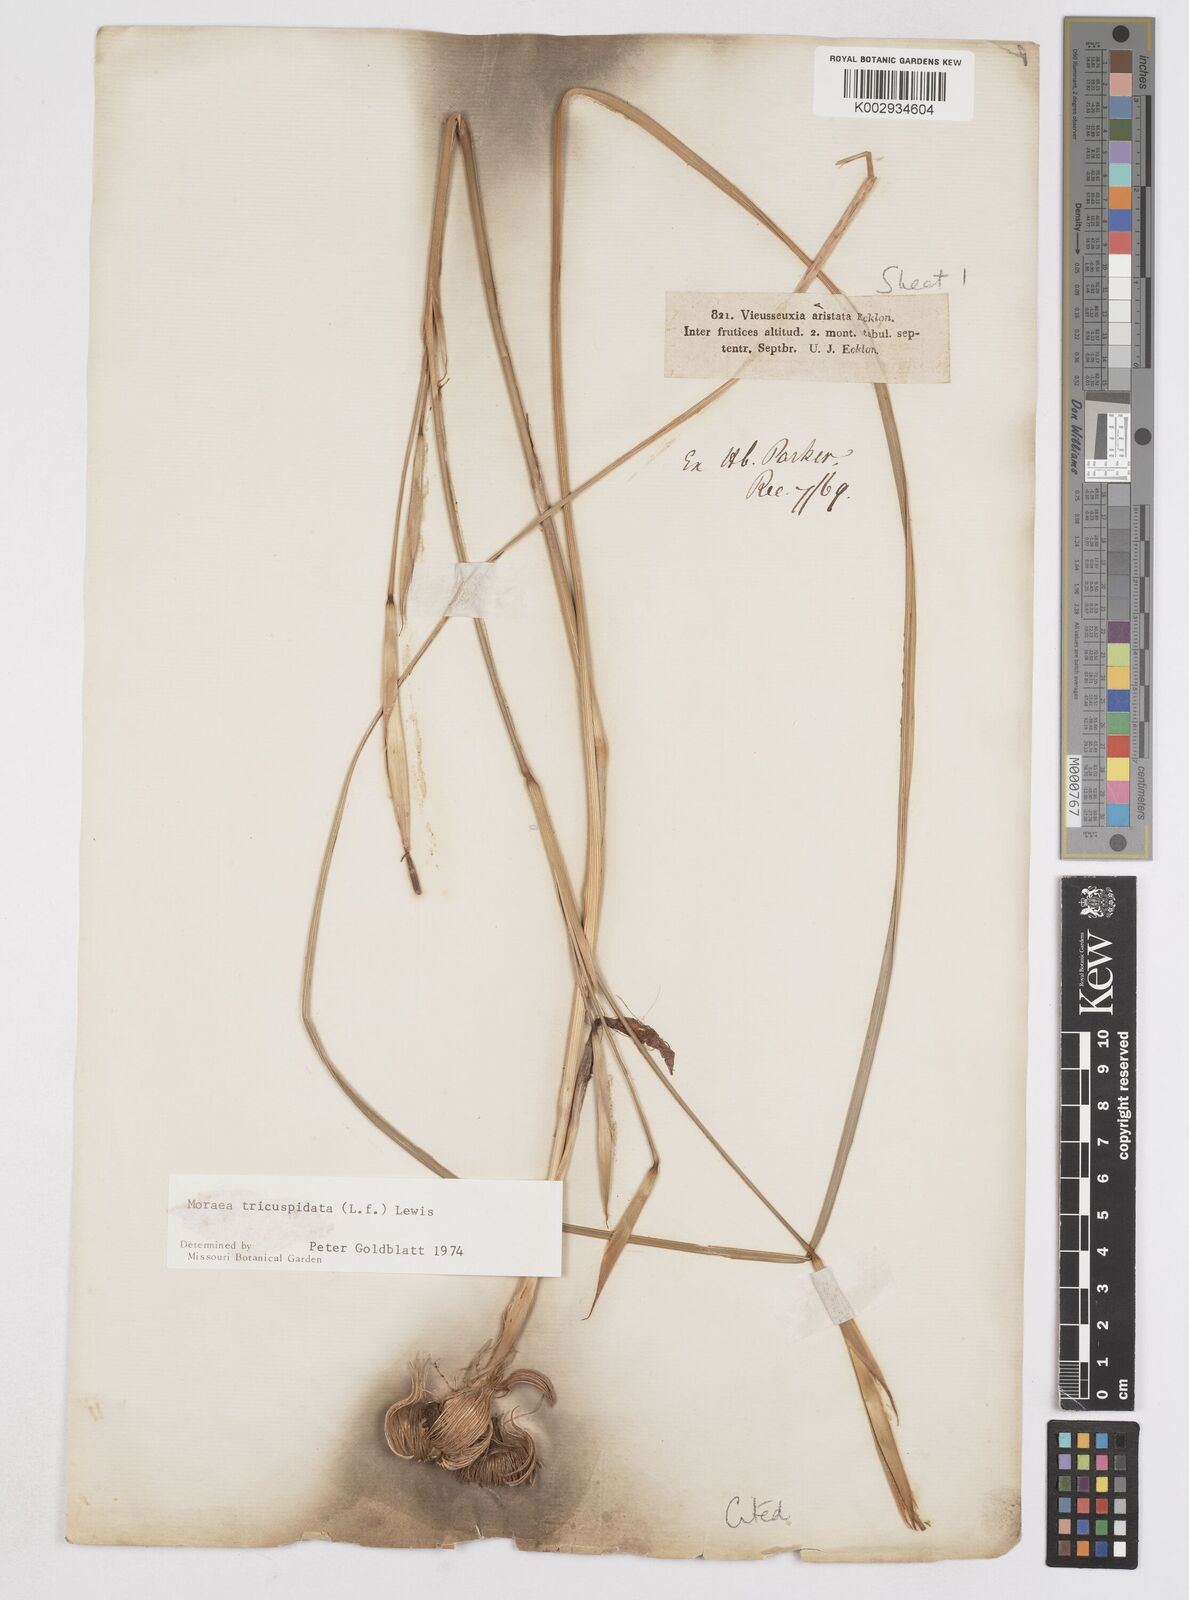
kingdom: Plantae
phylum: Tracheophyta
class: Liliopsida
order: Asparagales
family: Iridaceae
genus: Moraea
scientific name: Moraea tricuspidata
